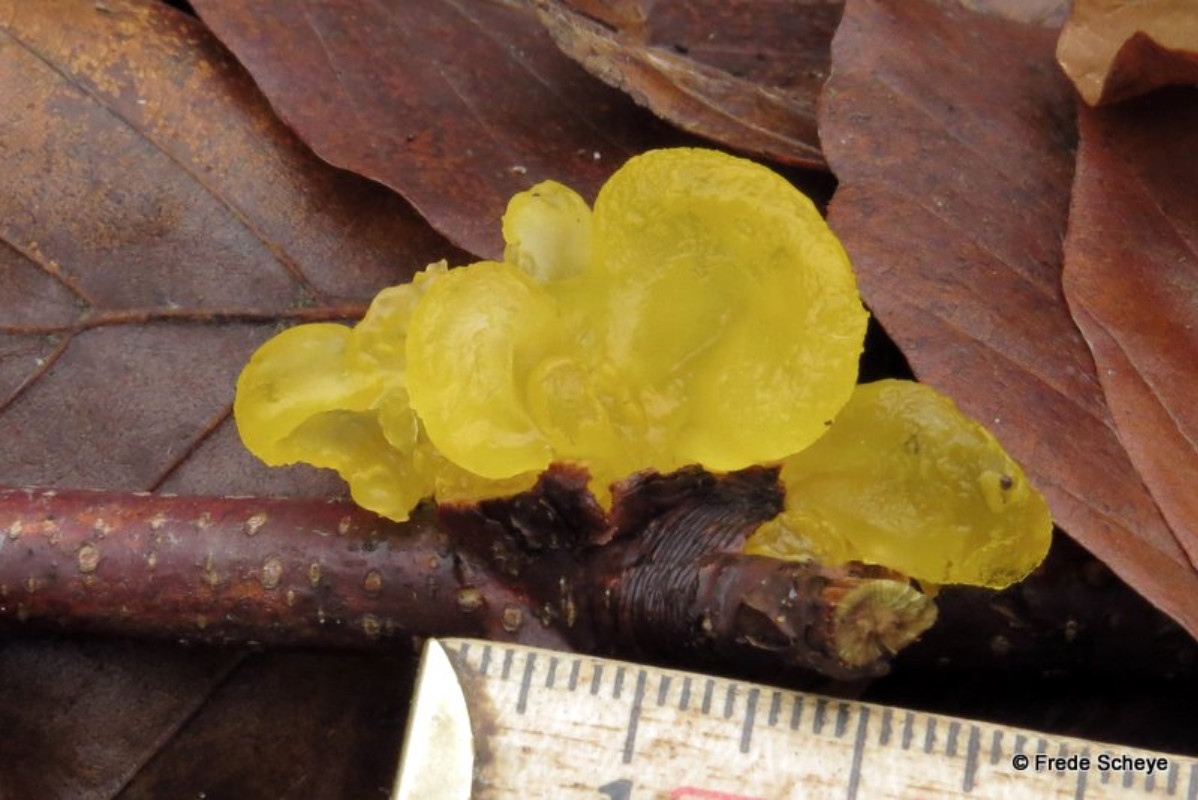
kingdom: Fungi
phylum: Basidiomycota
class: Tremellomycetes
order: Tremellales
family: Tremellaceae
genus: Tremella
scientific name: Tremella mesenterica
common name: gul bævresvamp
